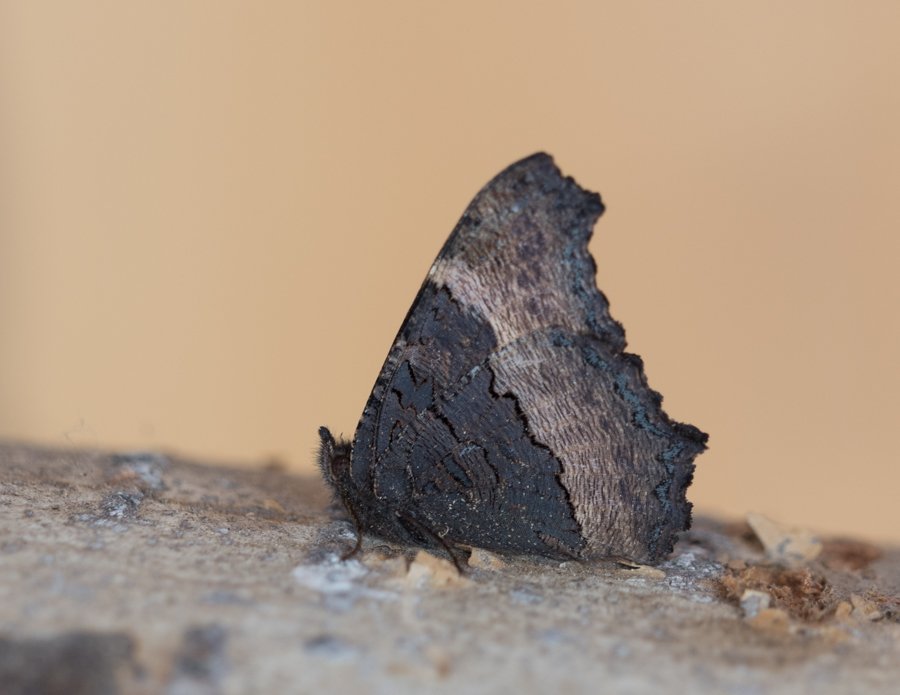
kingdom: Animalia
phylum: Arthropoda
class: Insecta
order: Lepidoptera
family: Nymphalidae
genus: Aglais
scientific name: Aglais milberti
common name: Milbert's Tortoiseshell
